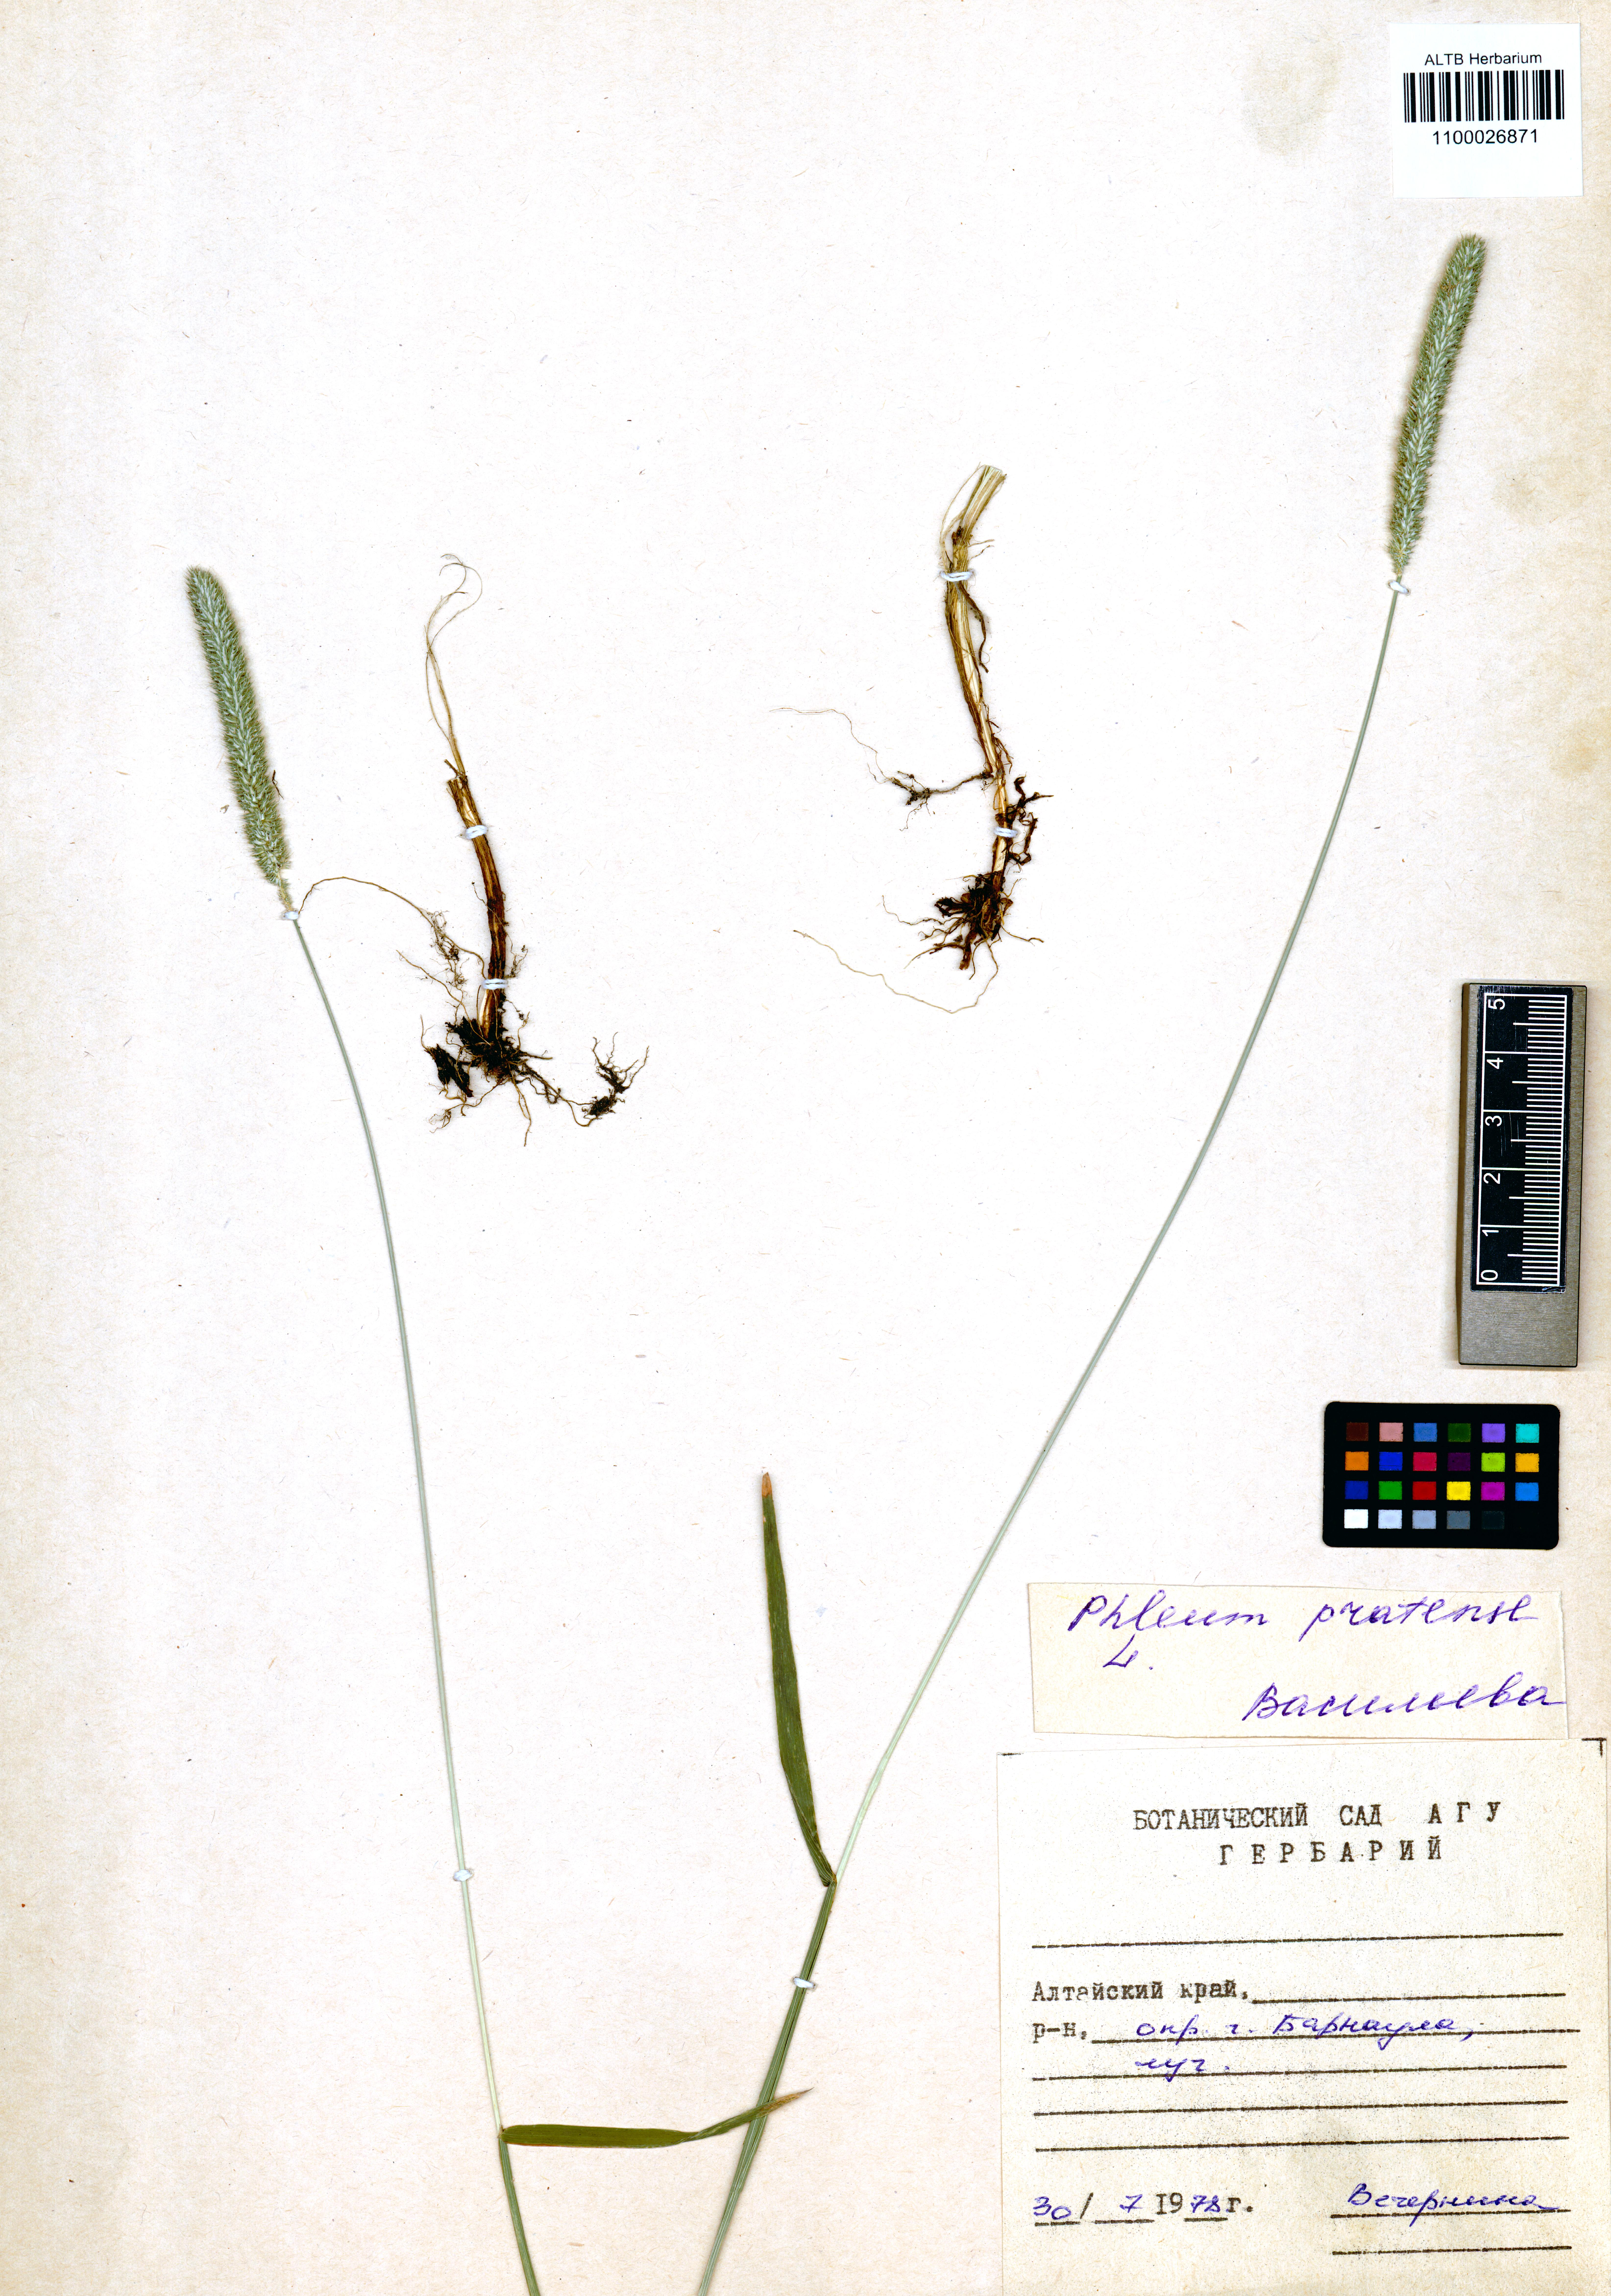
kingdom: Plantae
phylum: Tracheophyta
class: Liliopsida
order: Poales
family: Poaceae
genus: Phleum
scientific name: Phleum pratense
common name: Timothy grass
